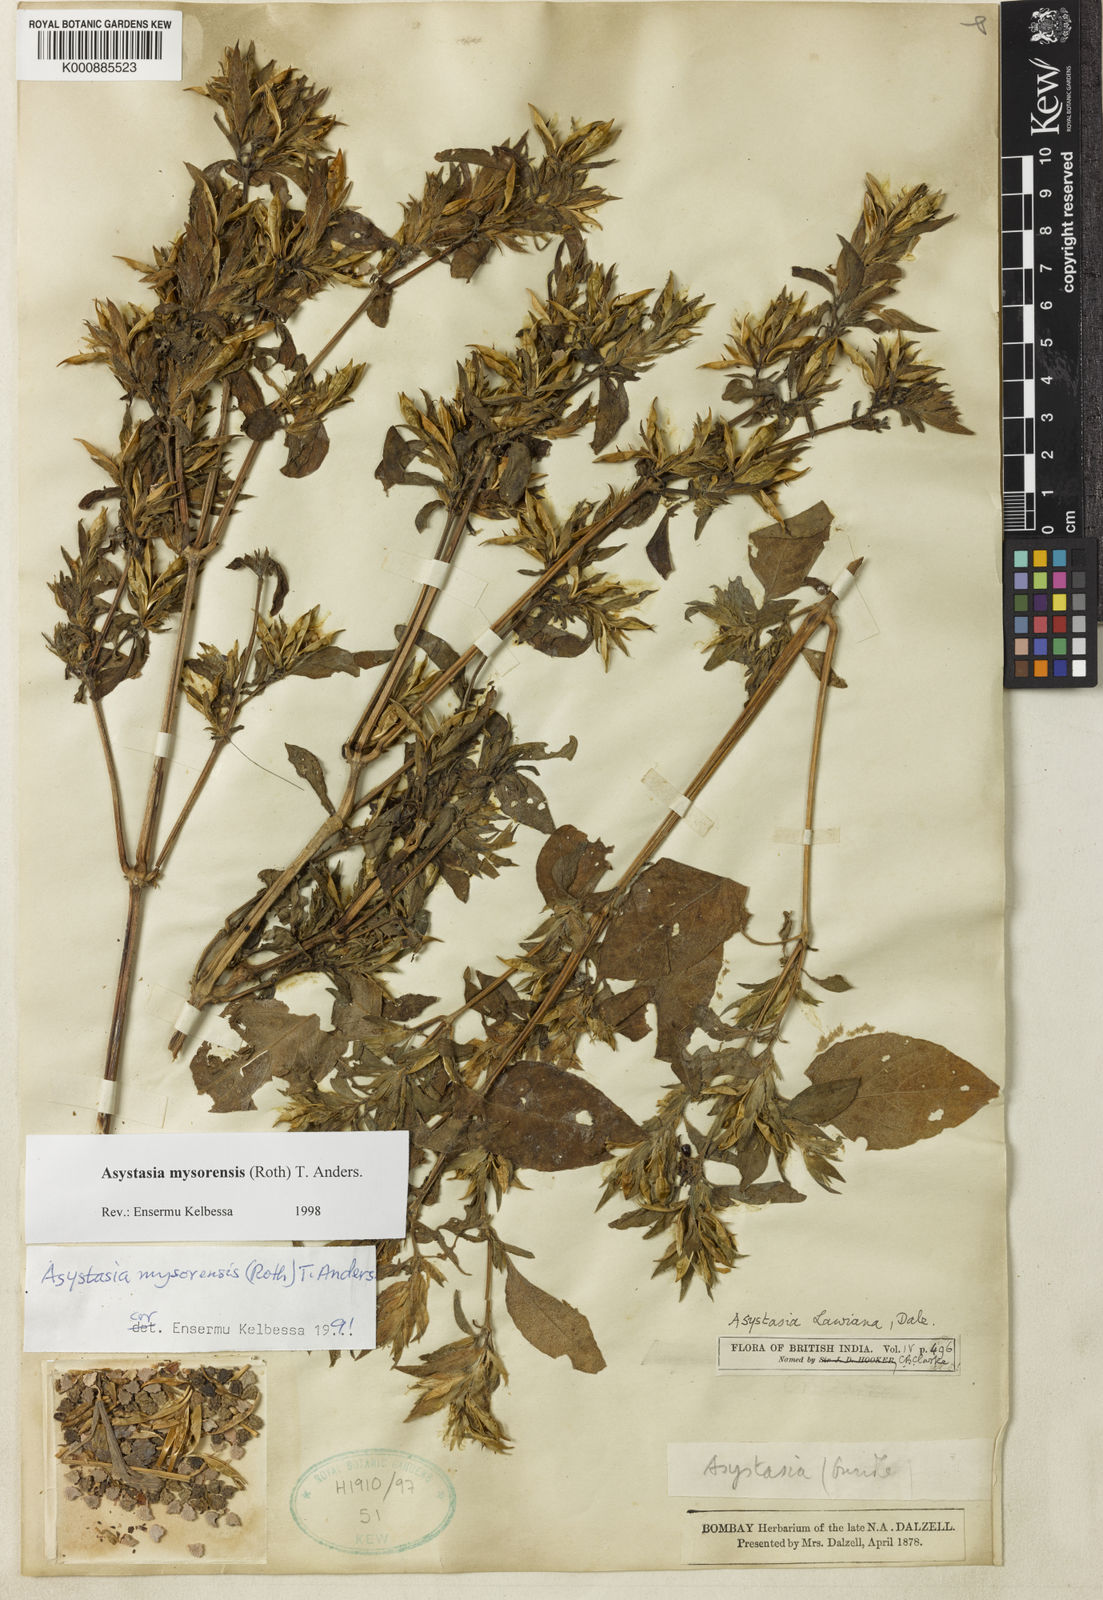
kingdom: Plantae
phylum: Tracheophyta
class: Magnoliopsida
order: Lamiales
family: Acanthaceae
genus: Asystasia
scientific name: Asystasia
